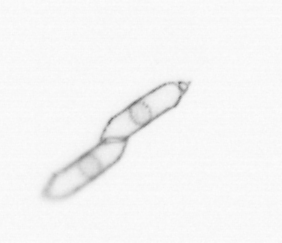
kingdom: Chromista
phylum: Ochrophyta
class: Bacillariophyceae
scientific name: Bacillariophyceae
